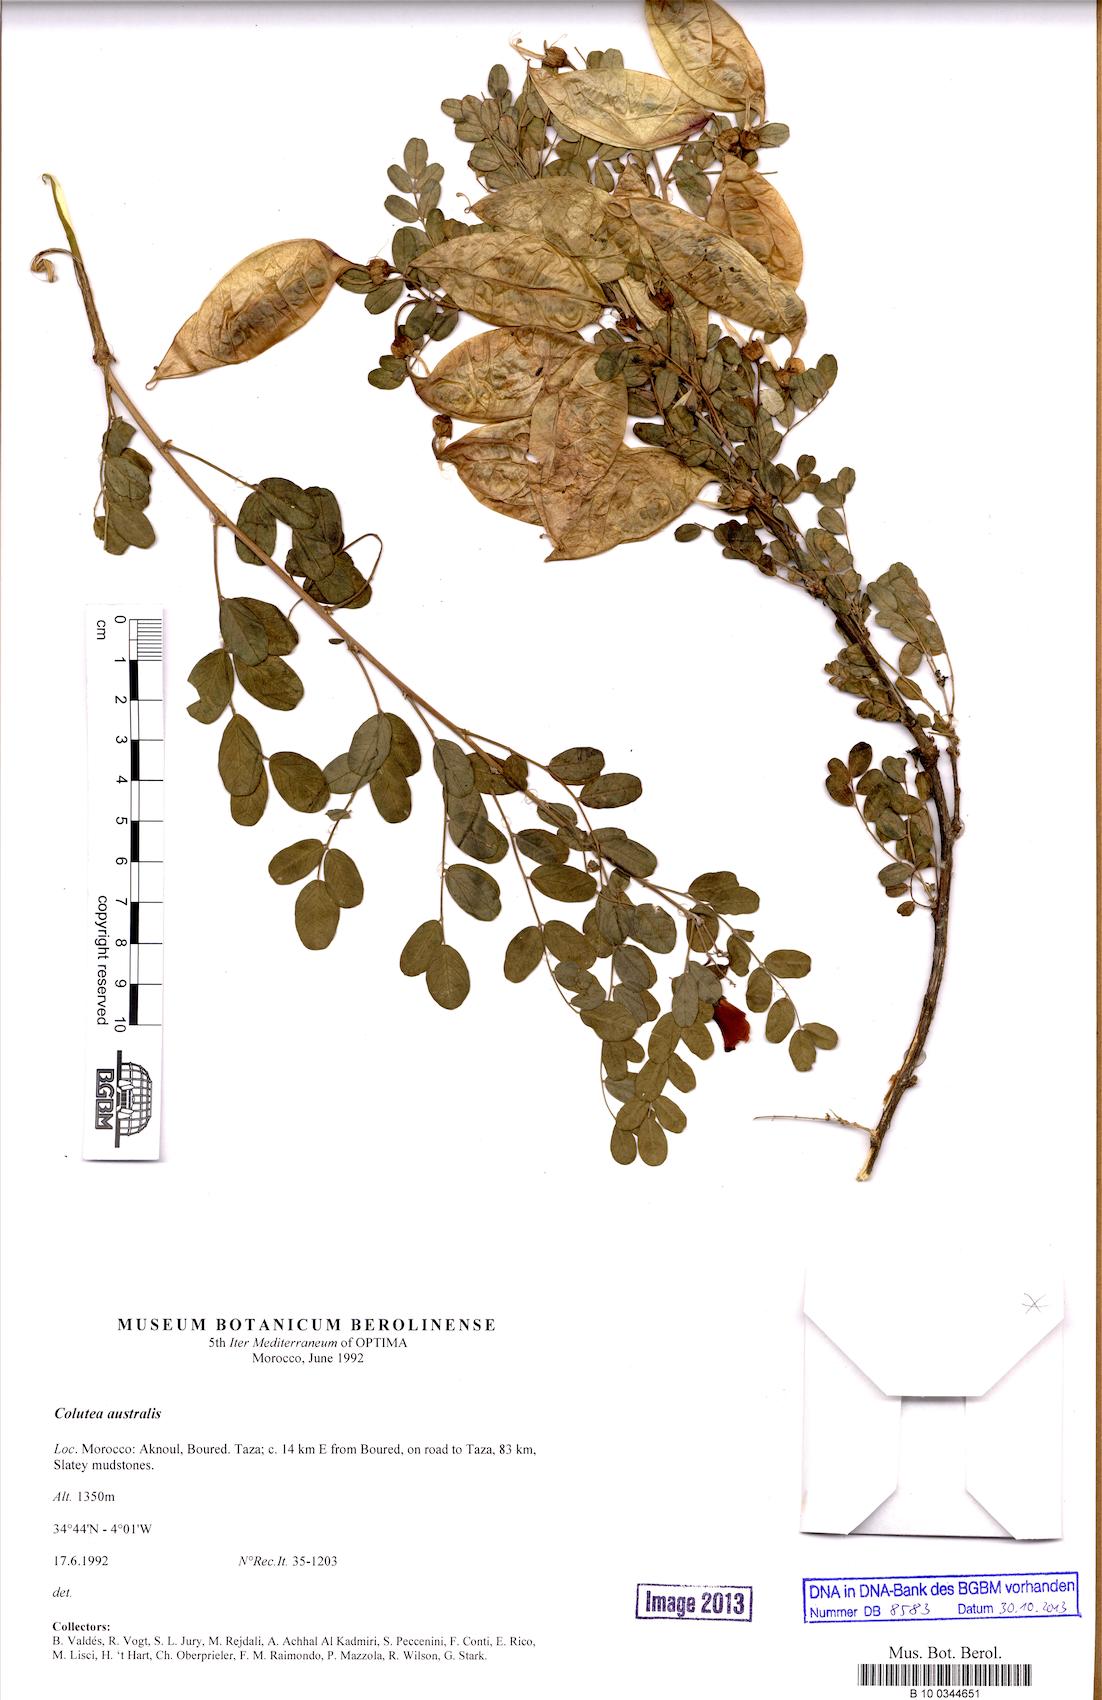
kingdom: Plantae
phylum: Tracheophyta
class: Magnoliopsida
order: Fabales
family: Fabaceae
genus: Astragalus
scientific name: Astragalus australis
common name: Indian milk-vetch
